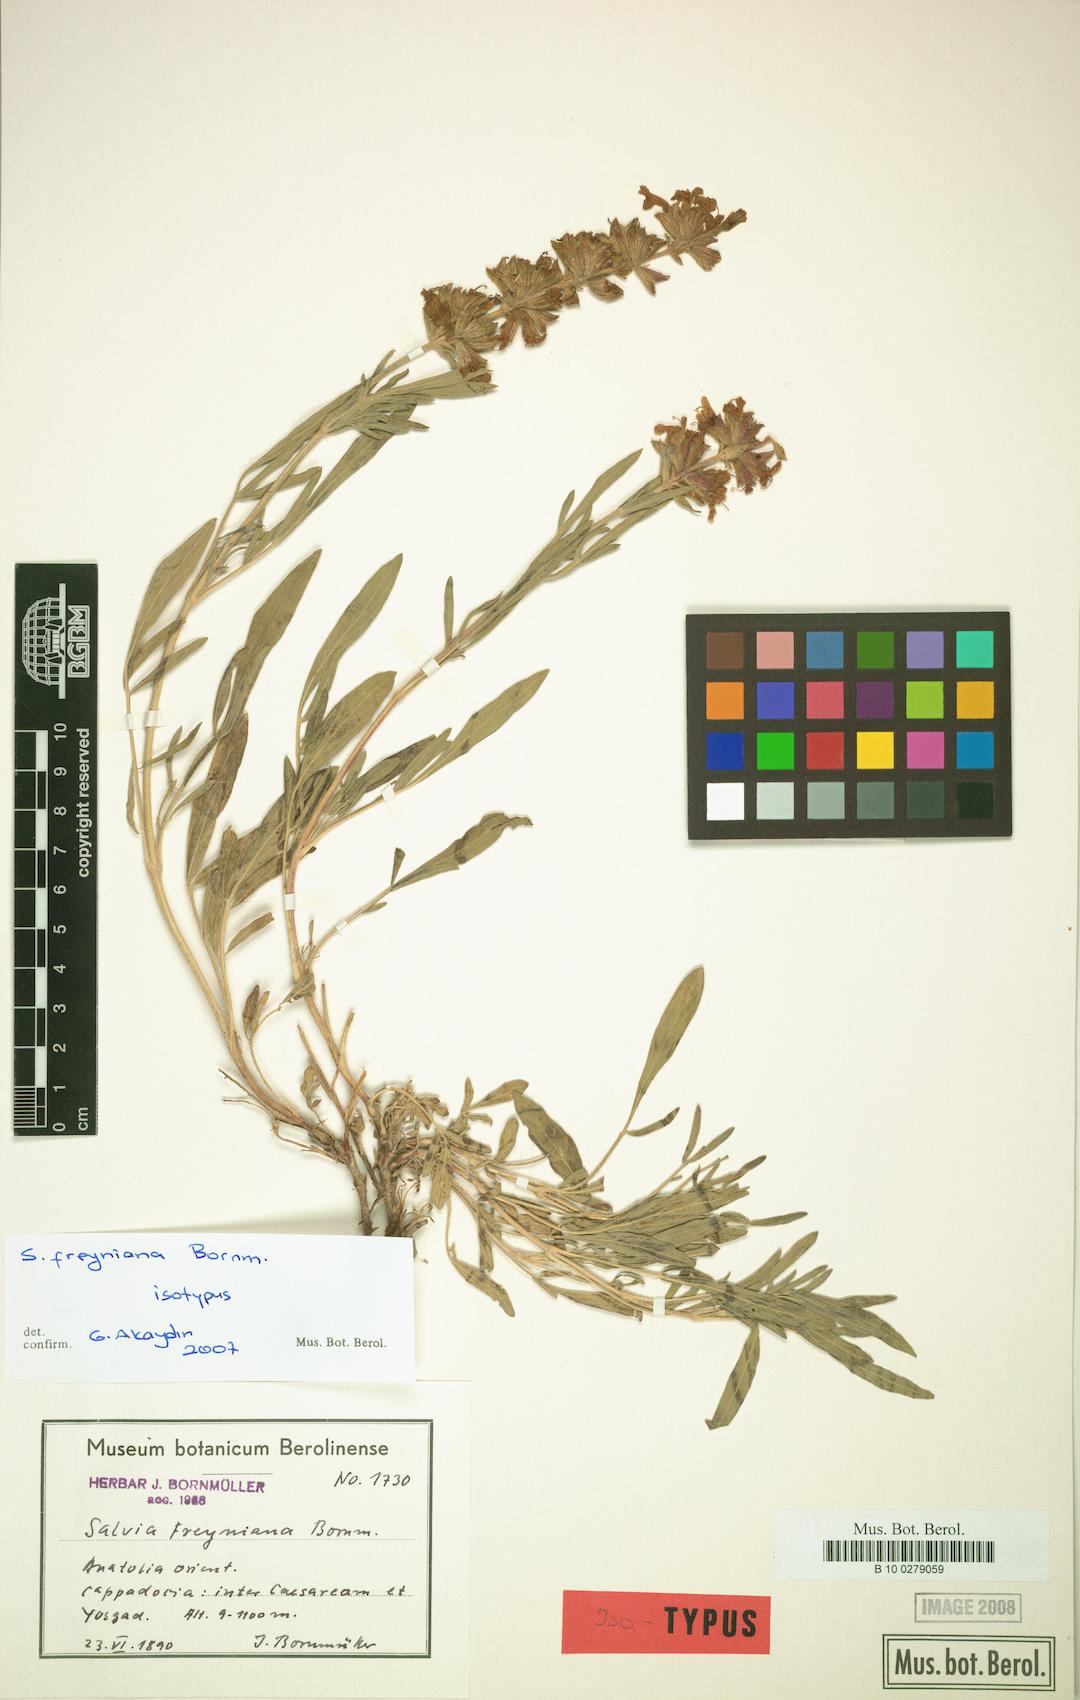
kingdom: Plantae
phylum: Tracheophyta
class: Magnoliopsida
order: Lamiales
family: Lamiaceae
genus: Salvia
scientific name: Salvia freyniana
